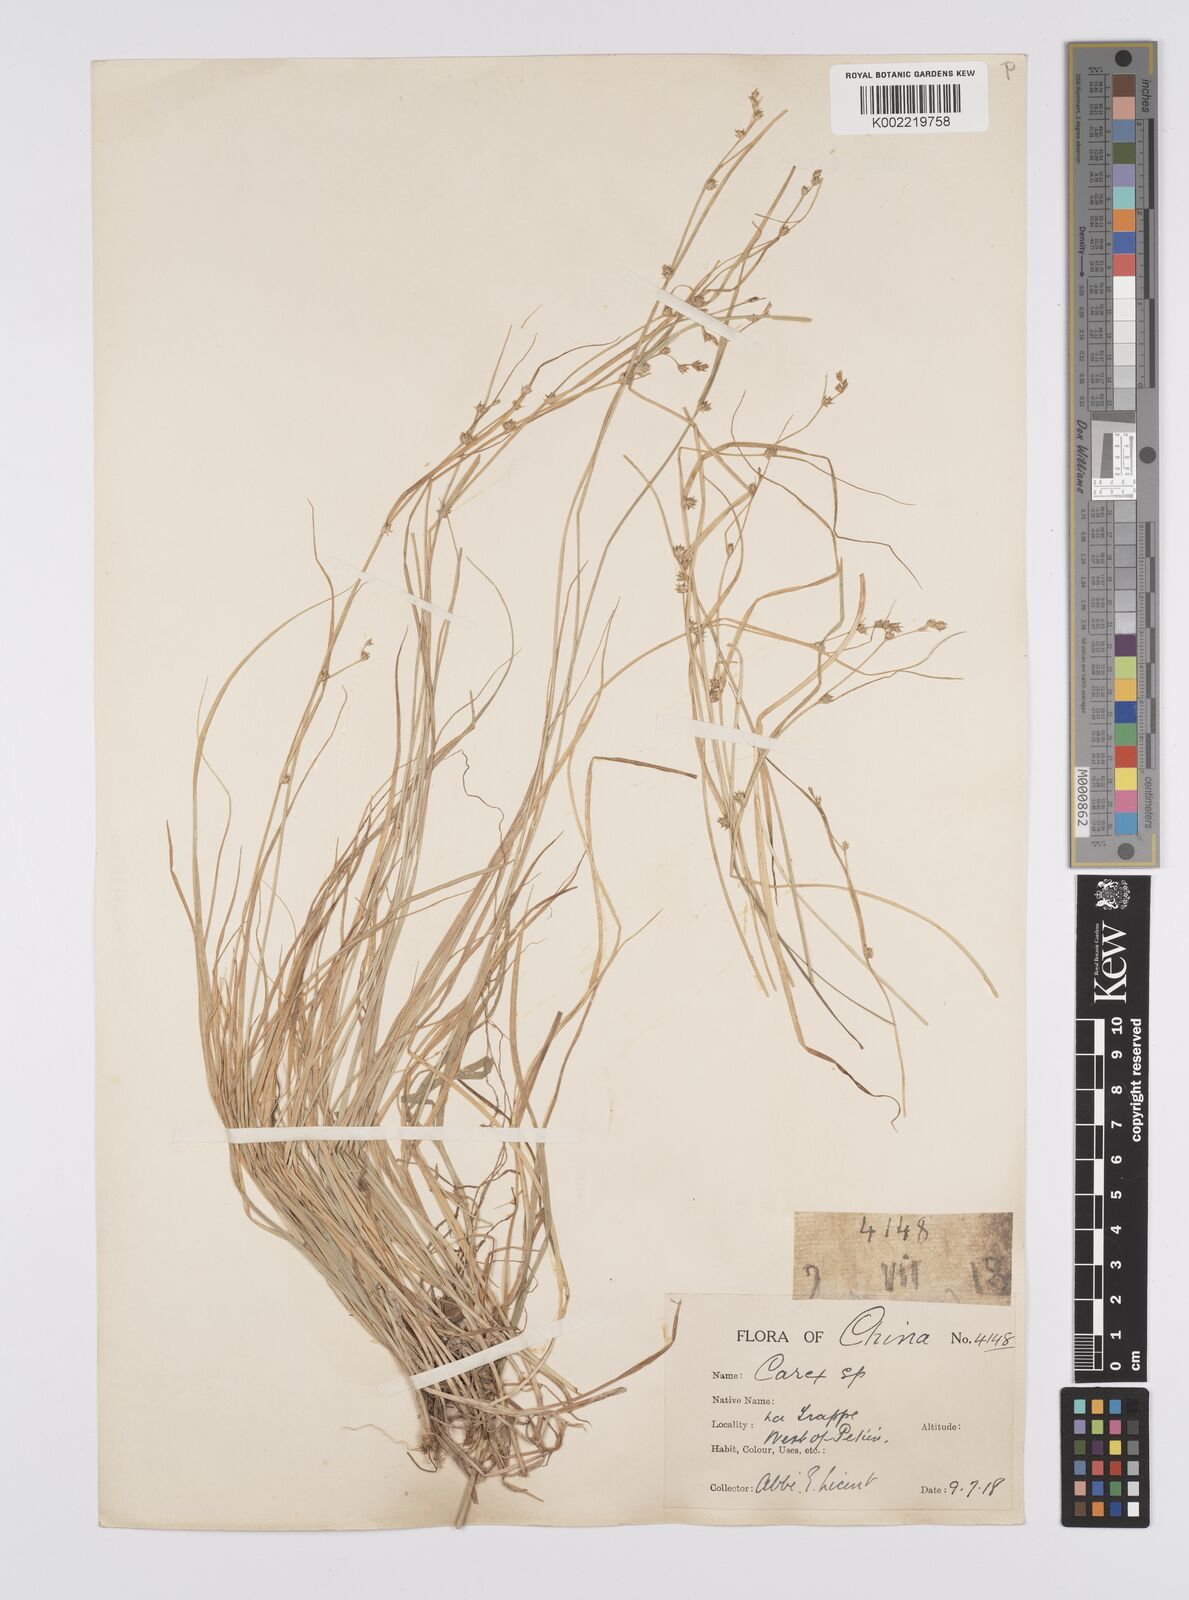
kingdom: Plantae
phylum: Tracheophyta
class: Liliopsida
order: Poales
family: Cyperaceae
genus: Carex
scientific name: Carex remota
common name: Remote sedge
